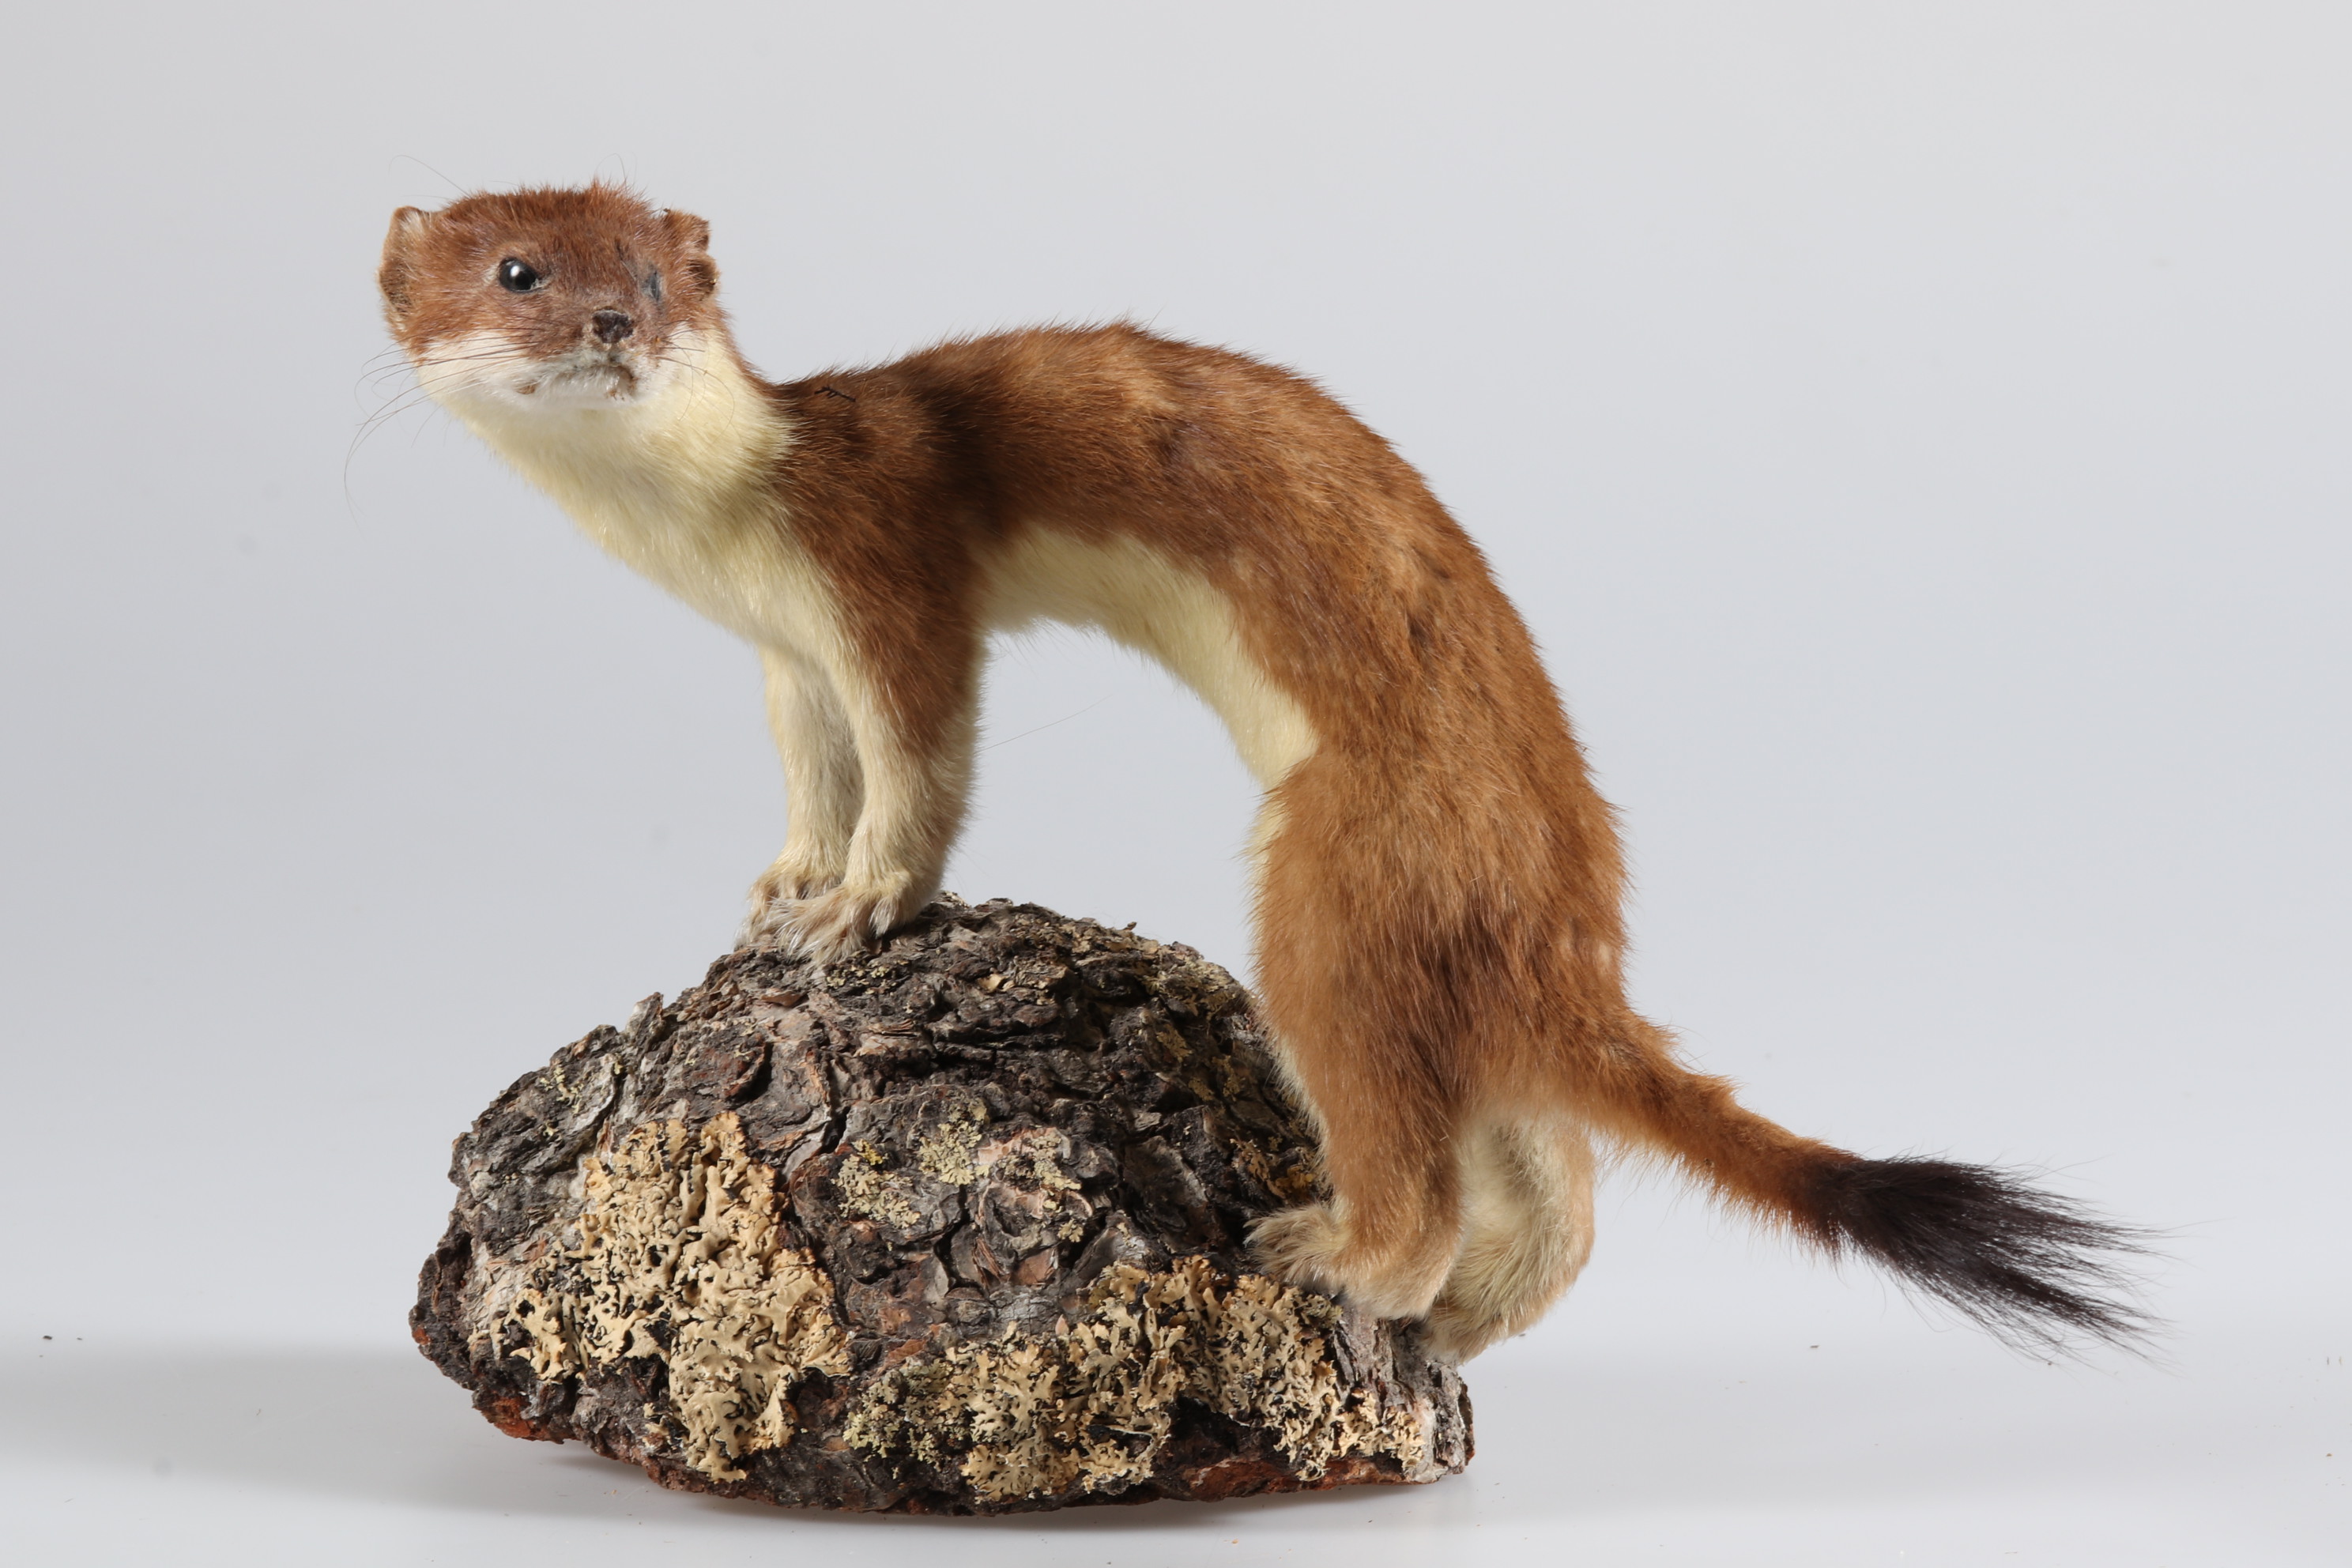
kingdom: Animalia
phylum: Chordata
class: Mammalia
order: Carnivora
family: Mustelidae
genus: Mustela
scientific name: Mustela erminea
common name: Stoat
